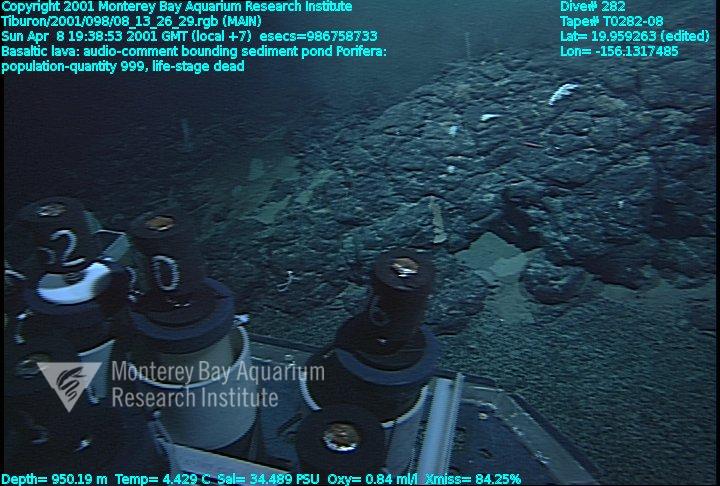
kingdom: Animalia
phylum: Porifera
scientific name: Porifera
